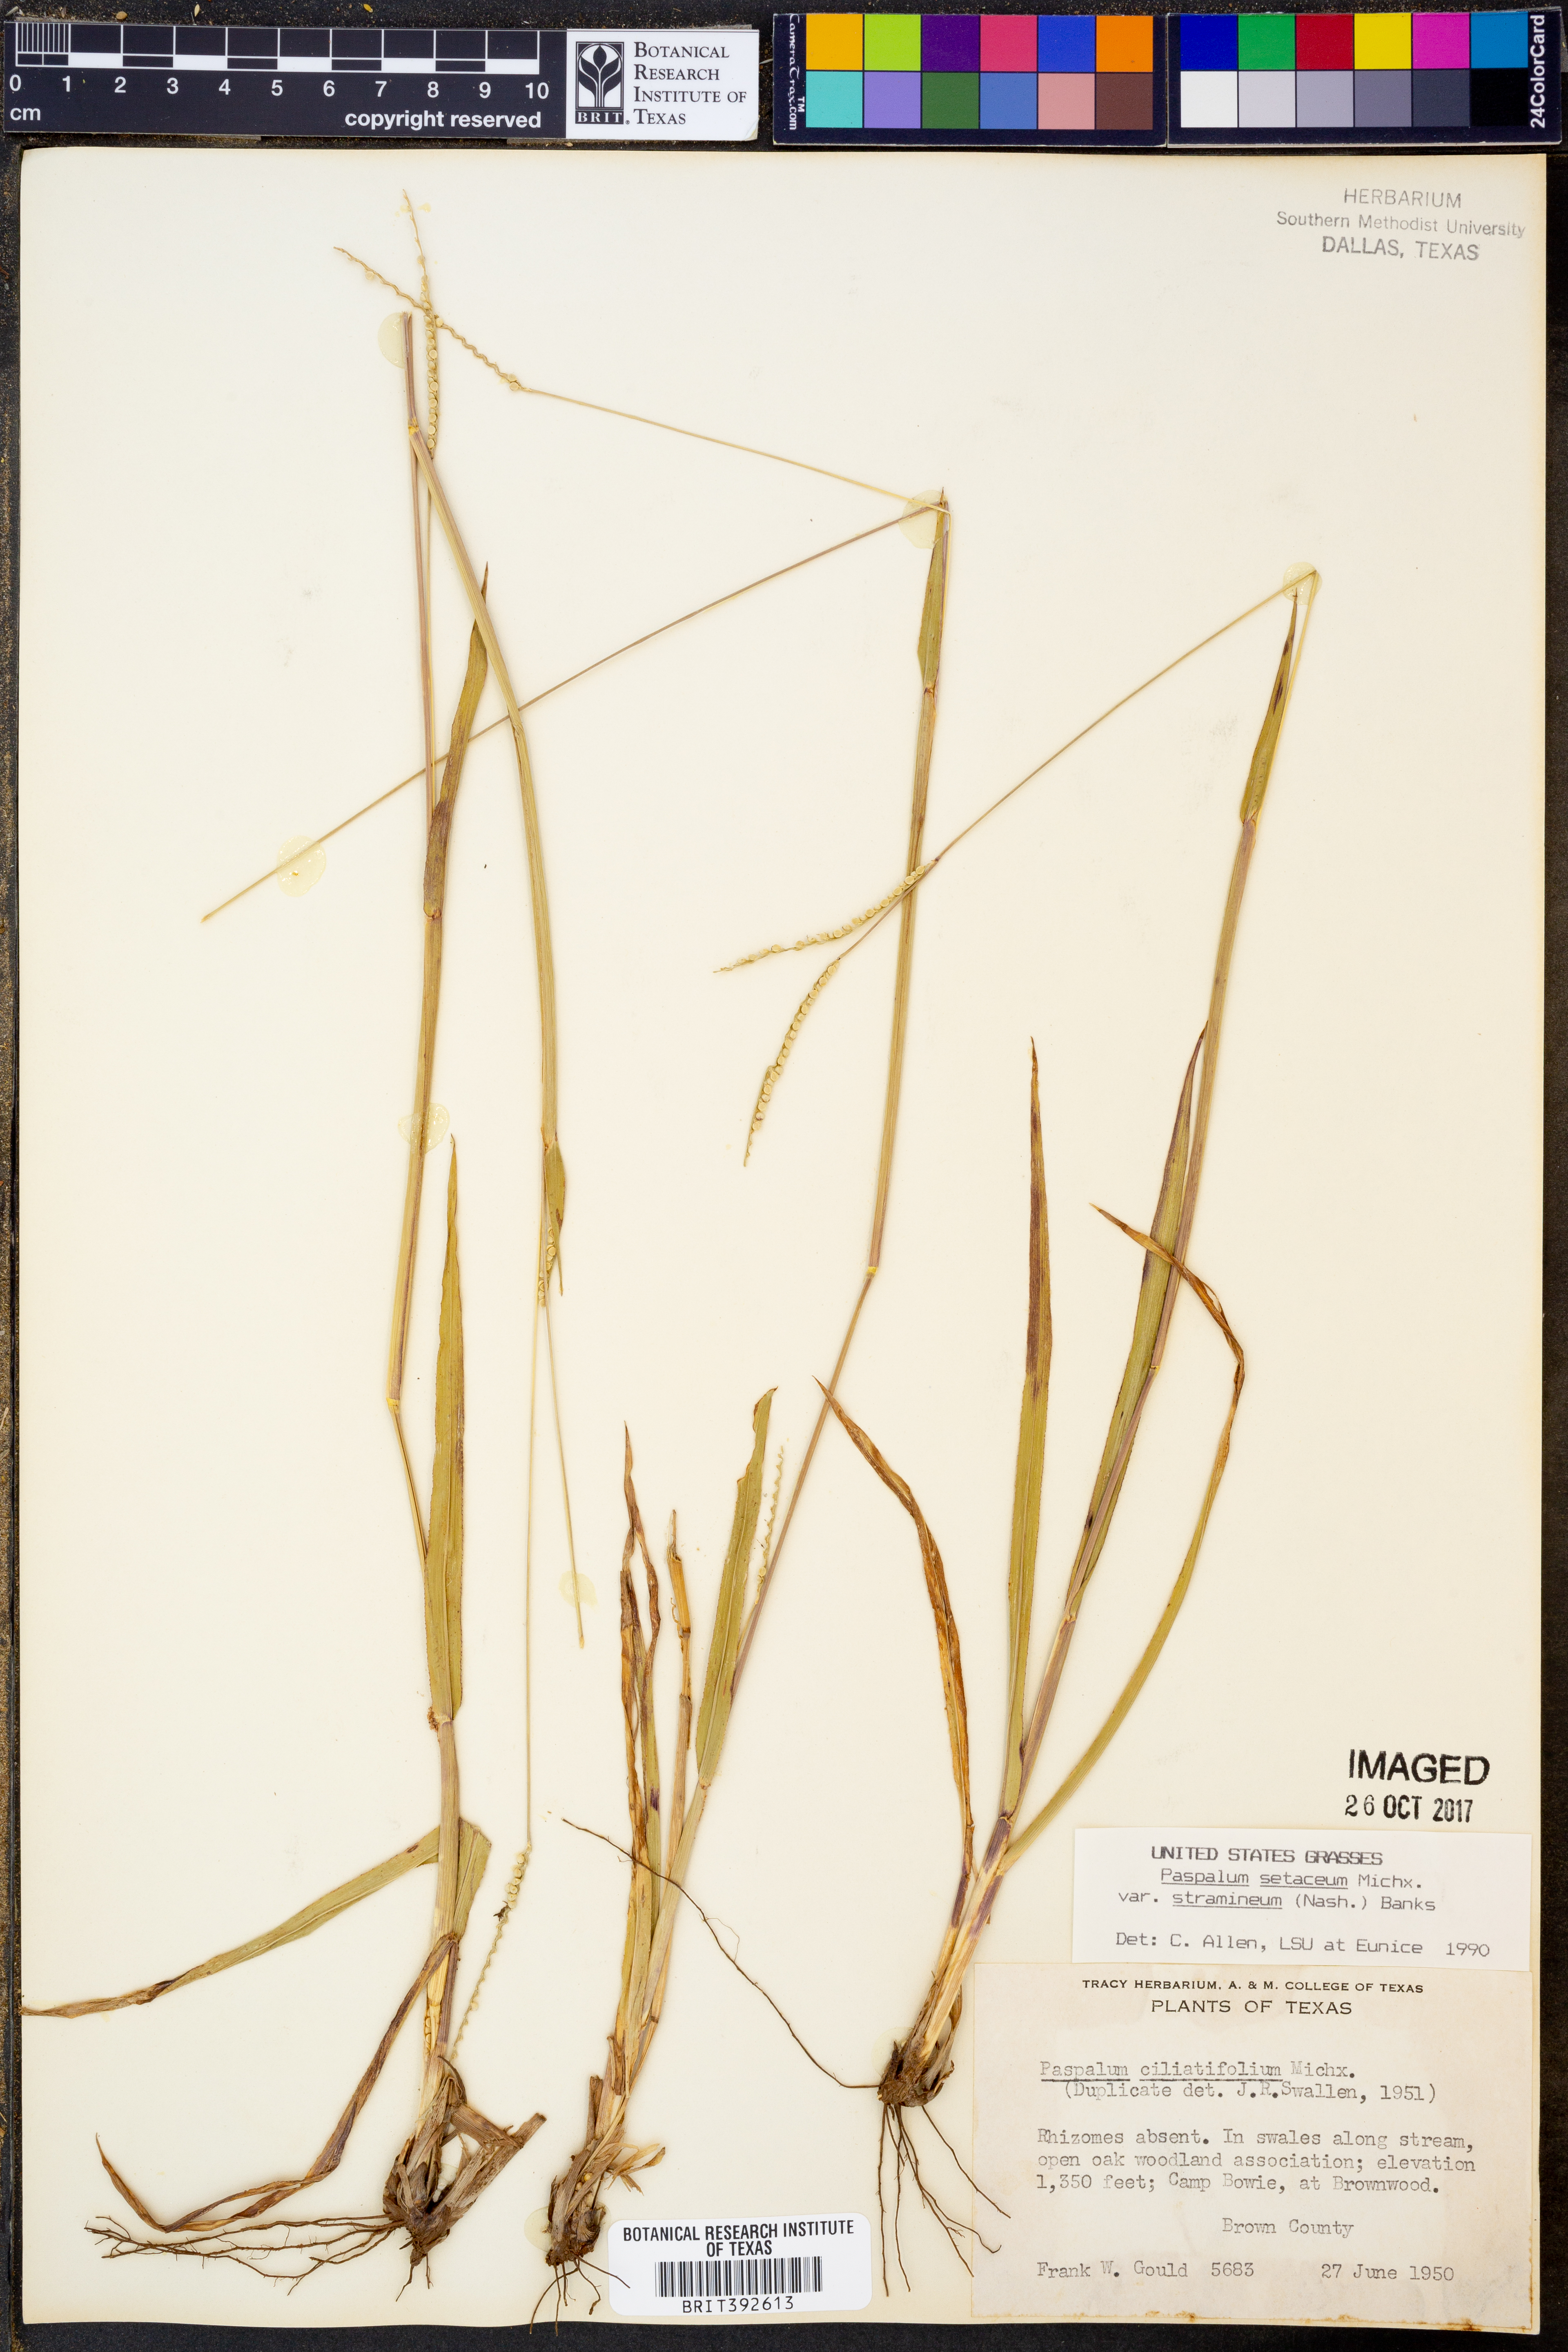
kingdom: Plantae
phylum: Tracheophyta
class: Liliopsida
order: Poales
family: Poaceae
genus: Paspalum
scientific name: Paspalum setaceum
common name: Slender paspalum
